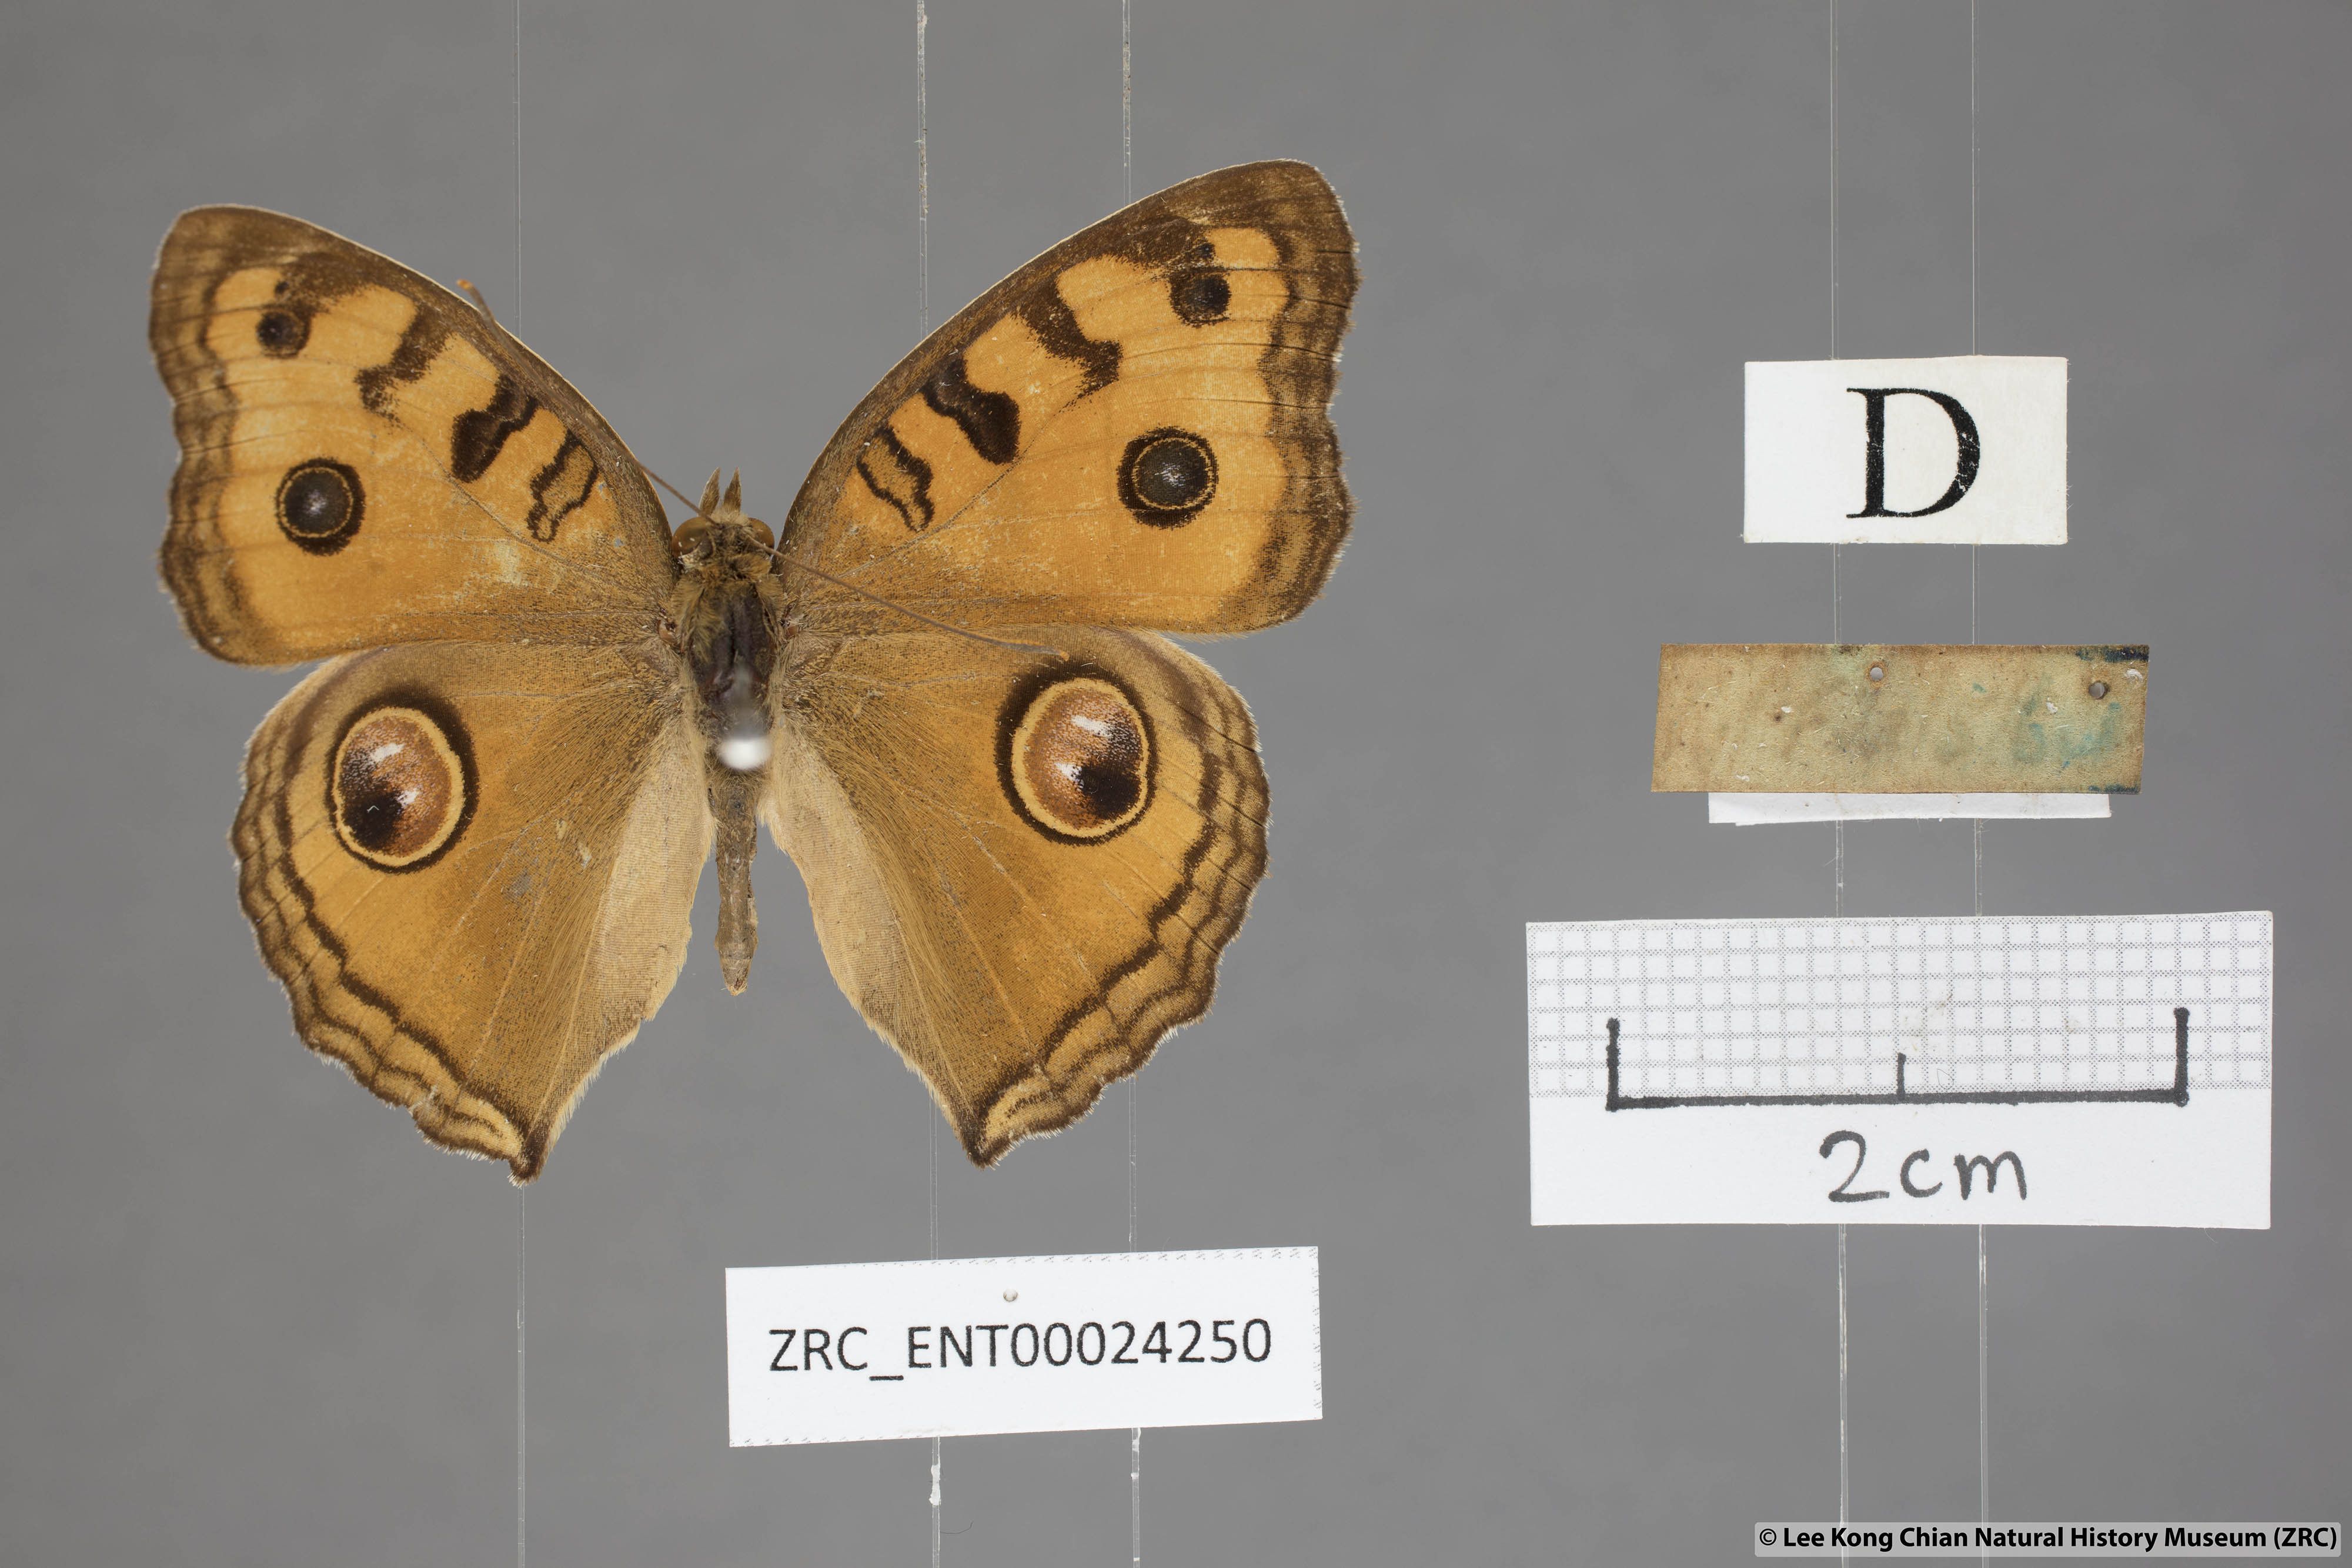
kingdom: Animalia
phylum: Arthropoda
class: Insecta
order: Lepidoptera
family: Nymphalidae
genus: Junonia
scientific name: Junonia almana
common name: Peacock pansy
